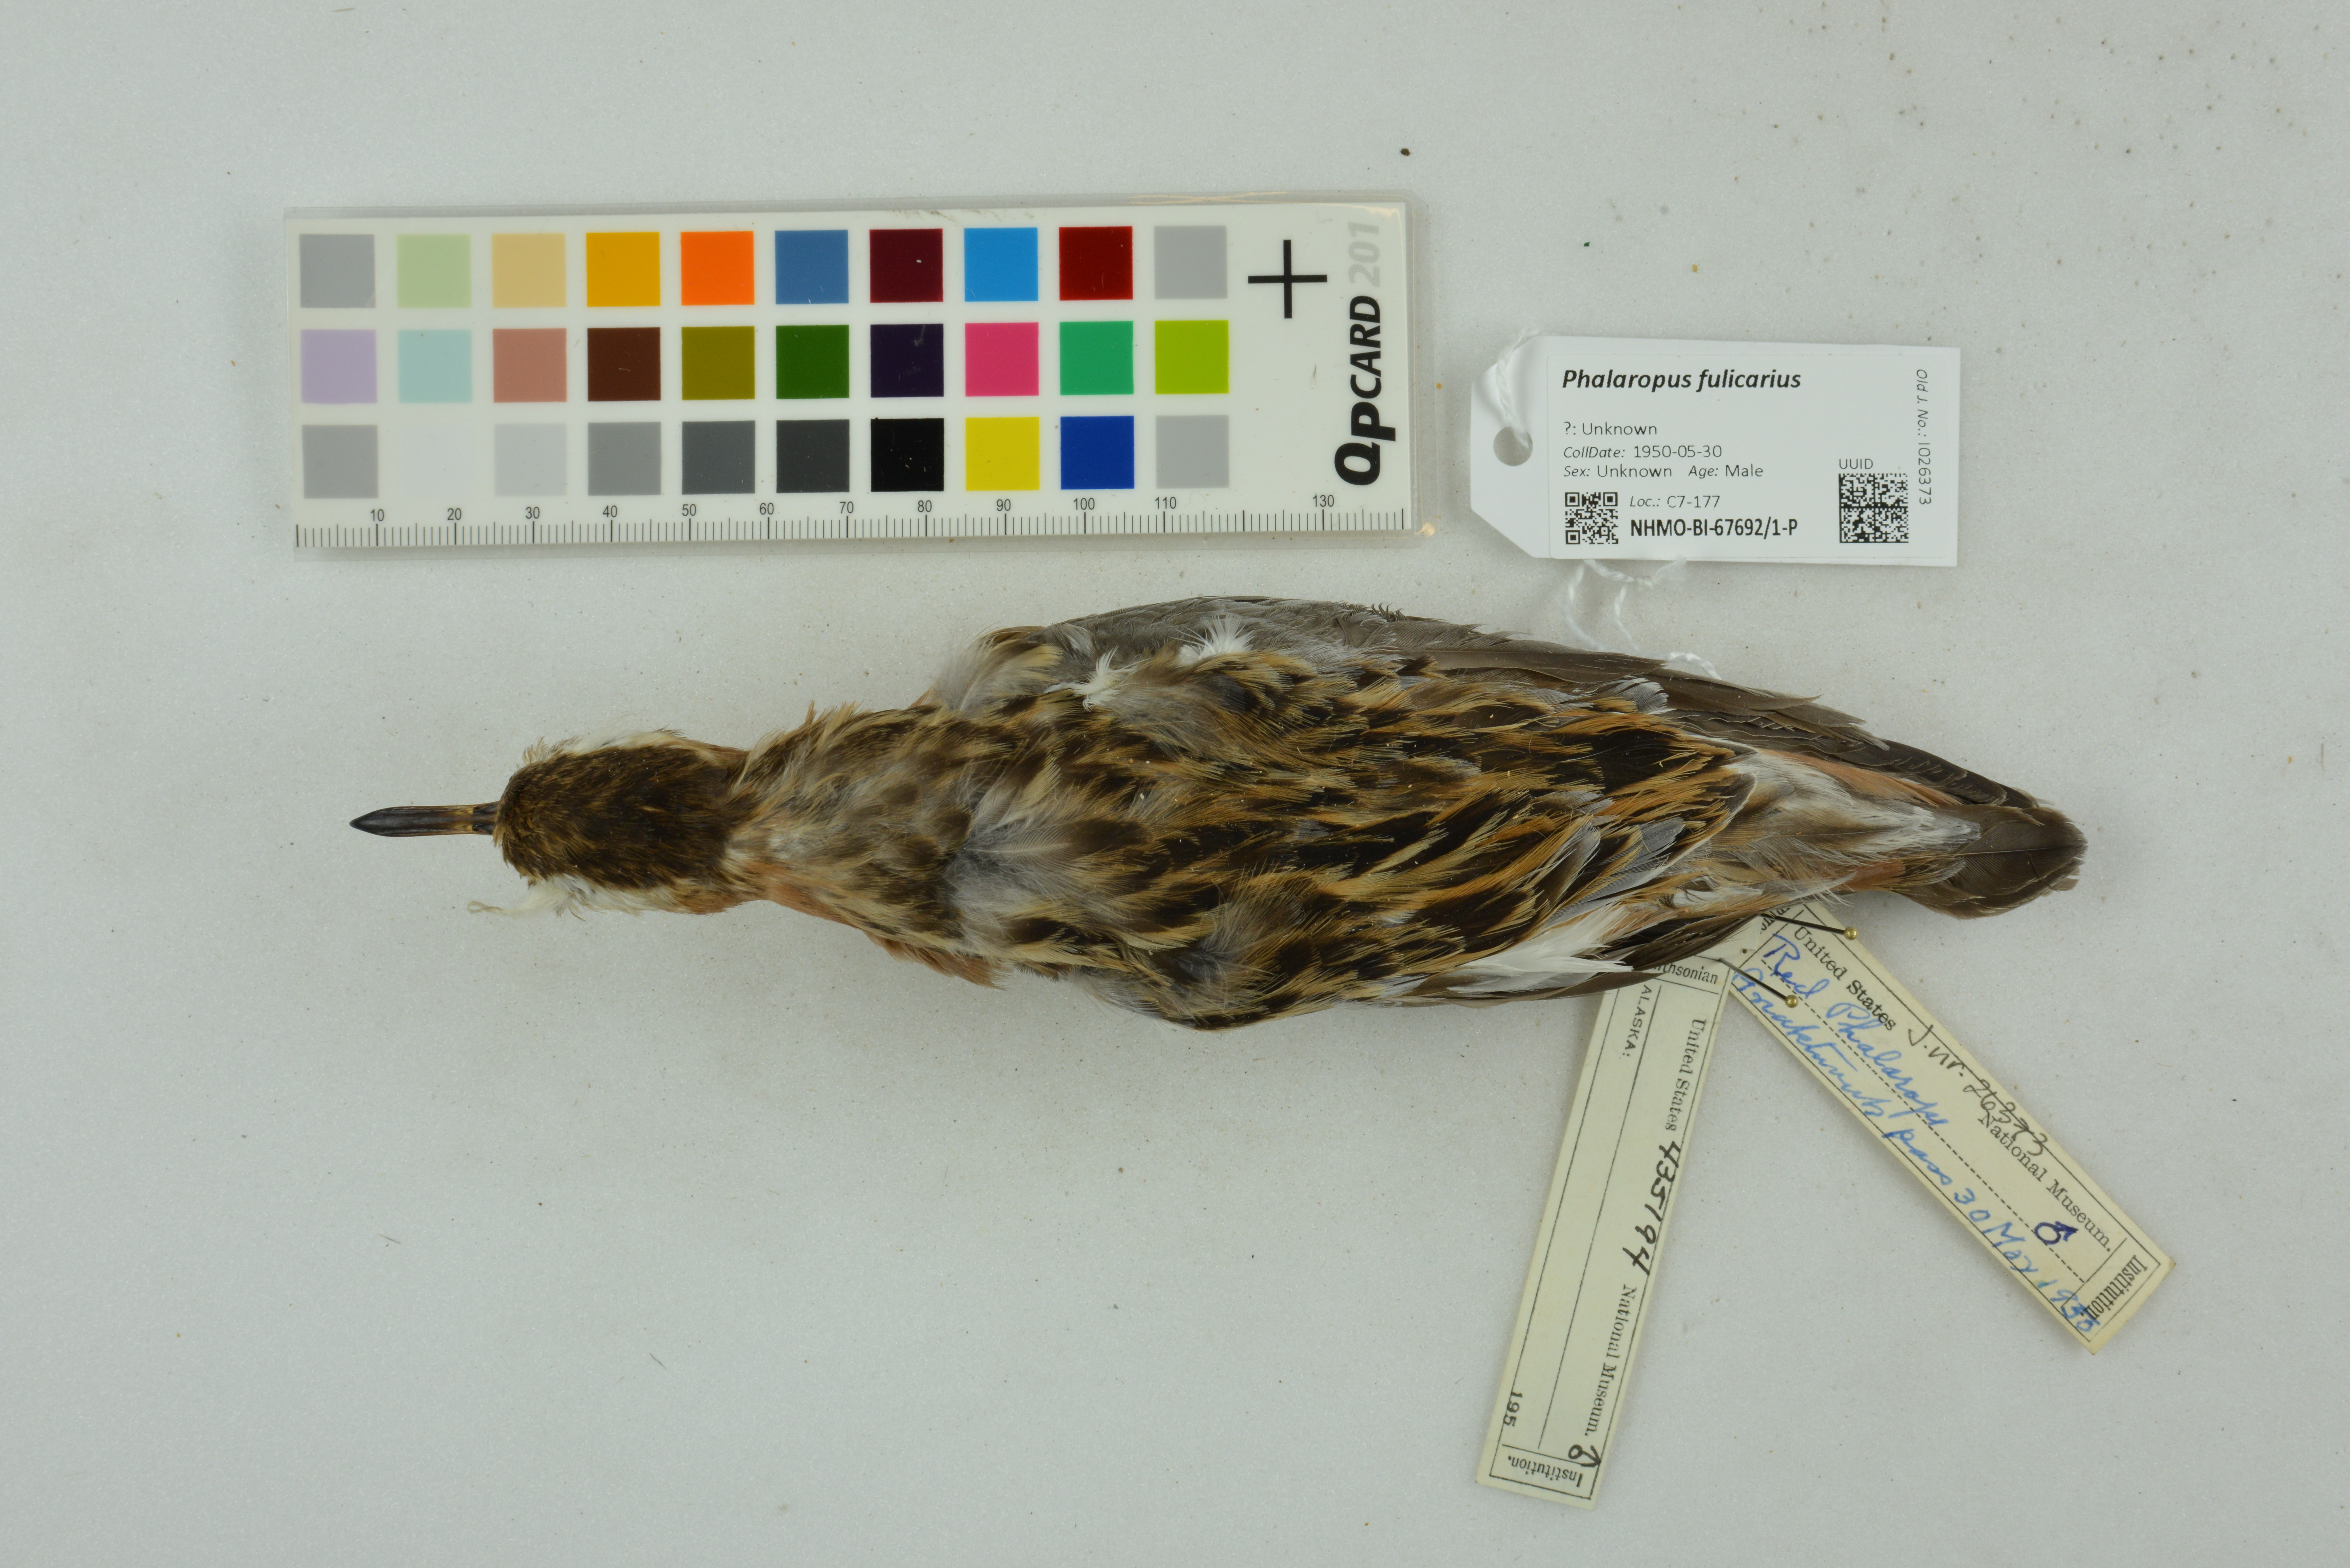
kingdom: Animalia
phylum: Chordata
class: Aves
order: Charadriiformes
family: Scolopacidae
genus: Phalaropus
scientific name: Phalaropus fulicarius
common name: Red phalarope
